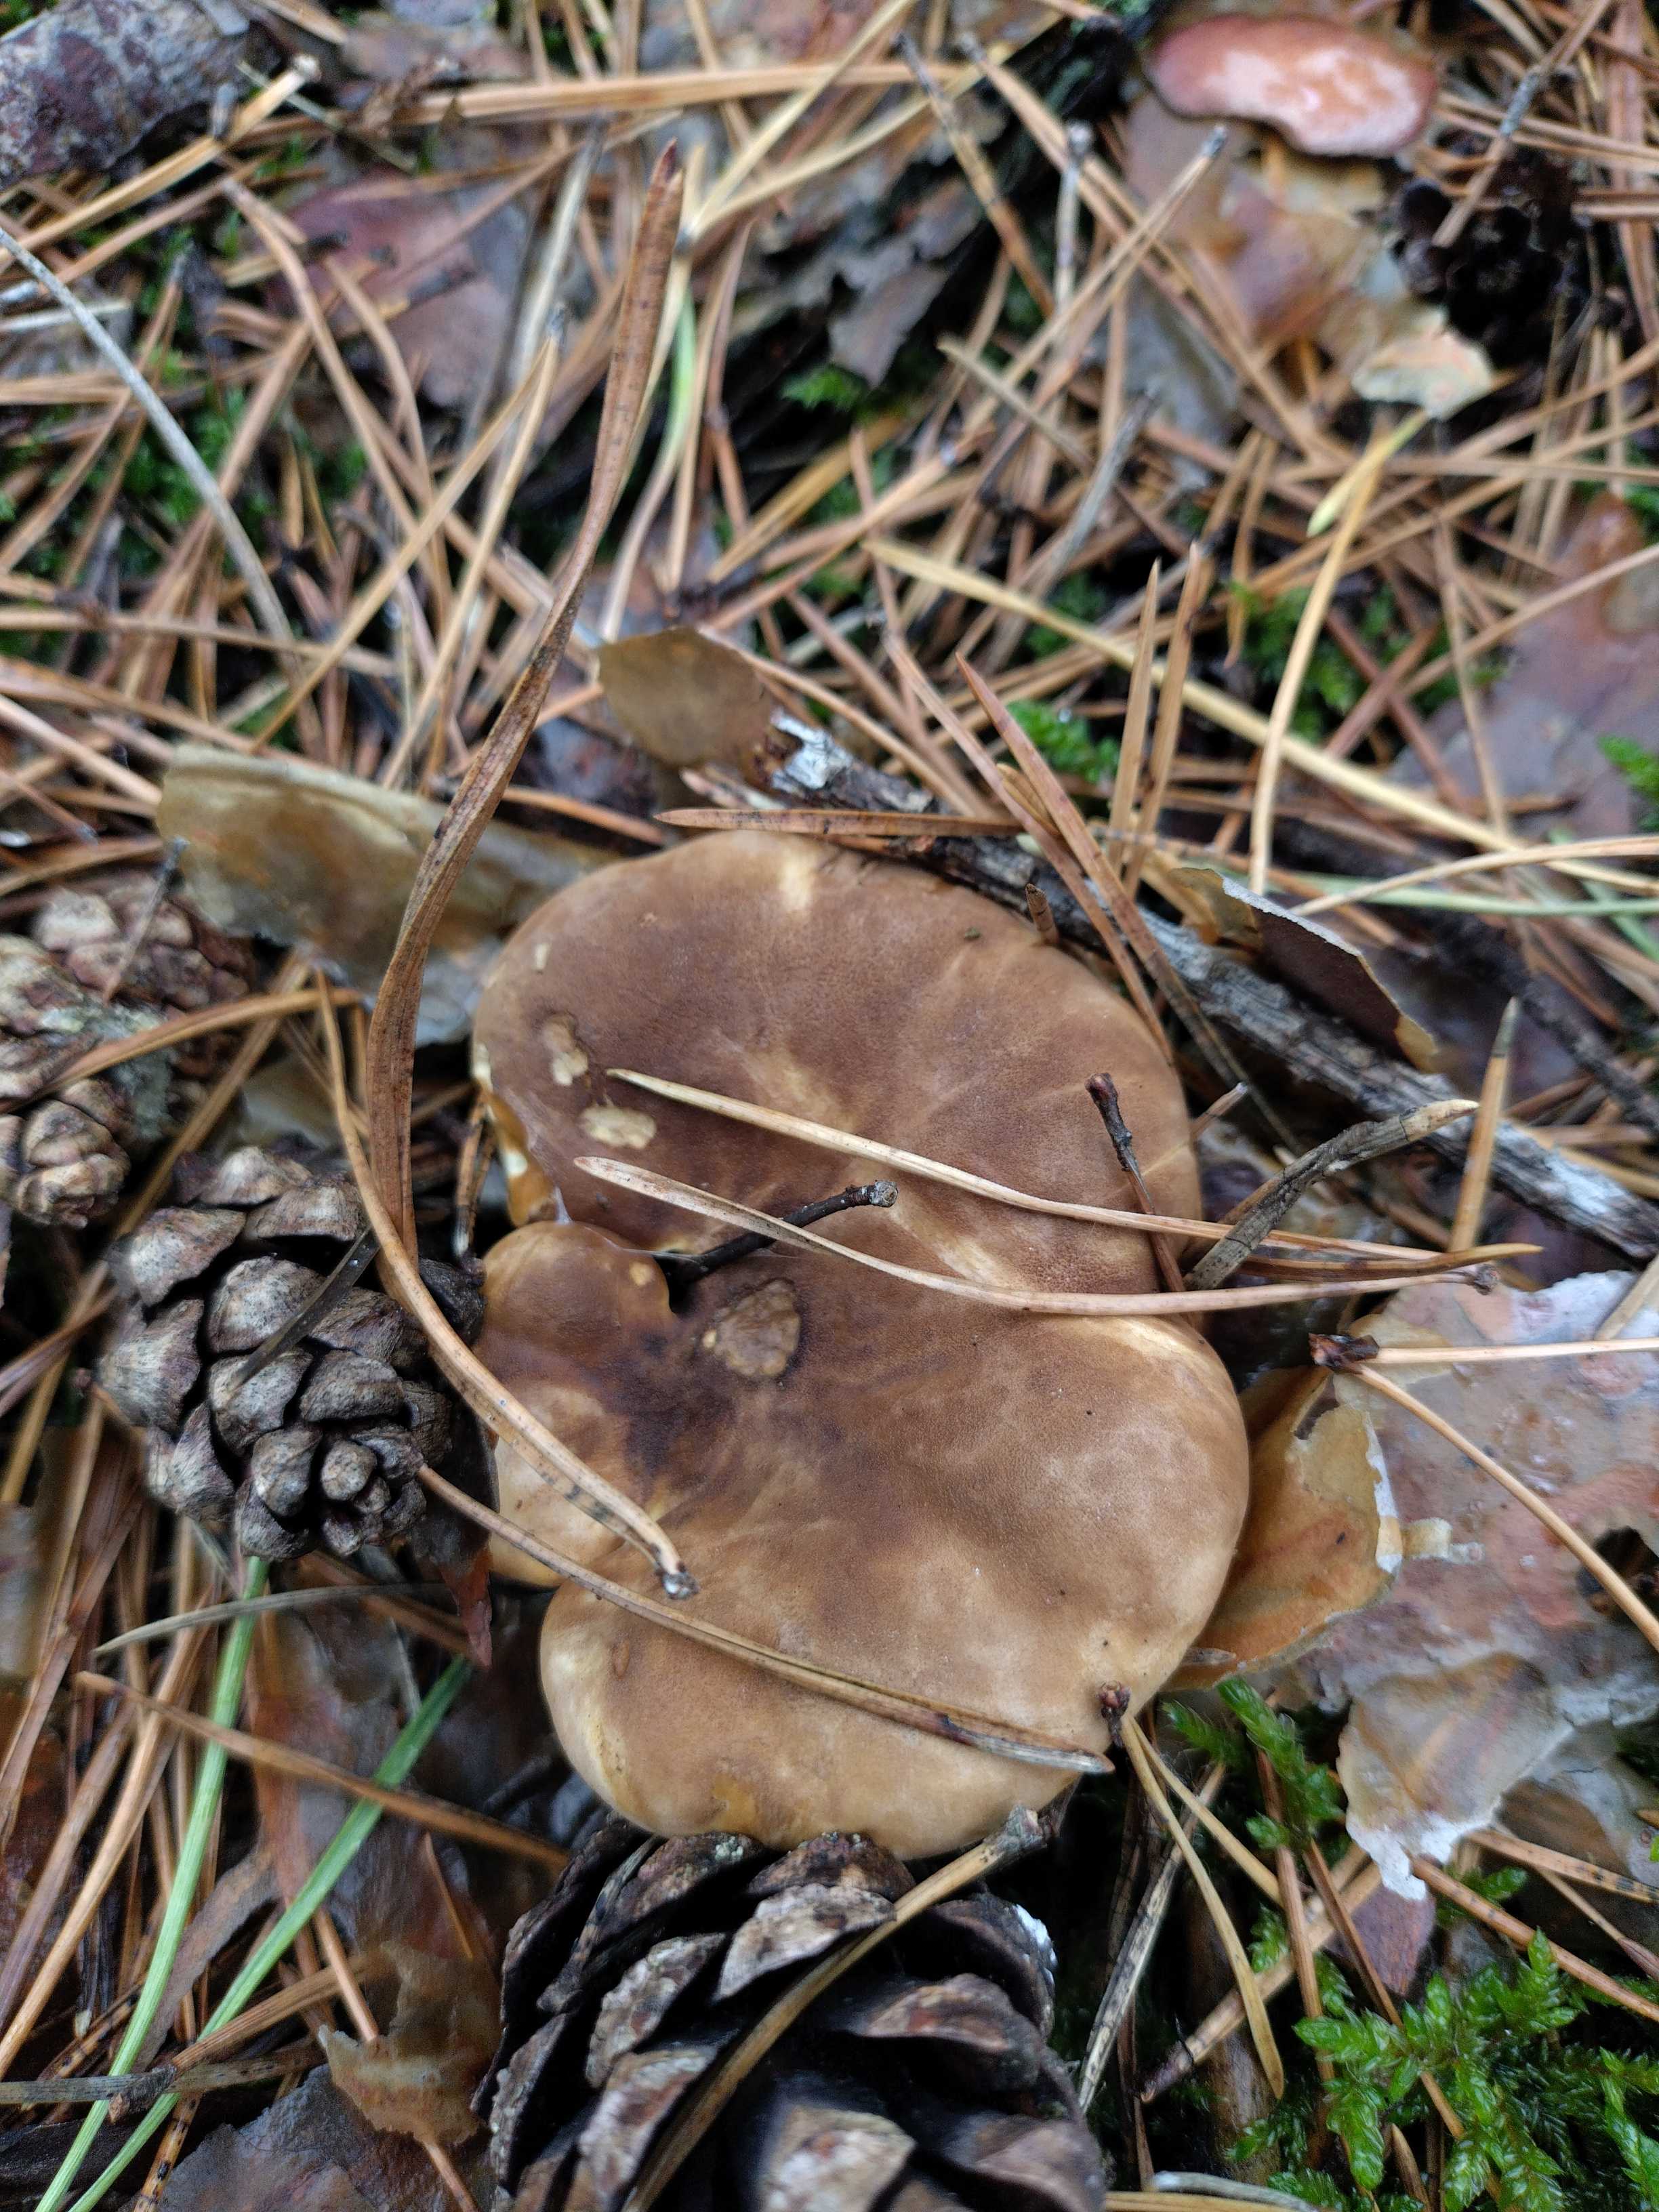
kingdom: Fungi
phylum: Basidiomycota
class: Agaricomycetes
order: Boletales
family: Tapinellaceae
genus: Tapinella
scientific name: Tapinella atrotomentosa
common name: sortfiltet viftesvamp
